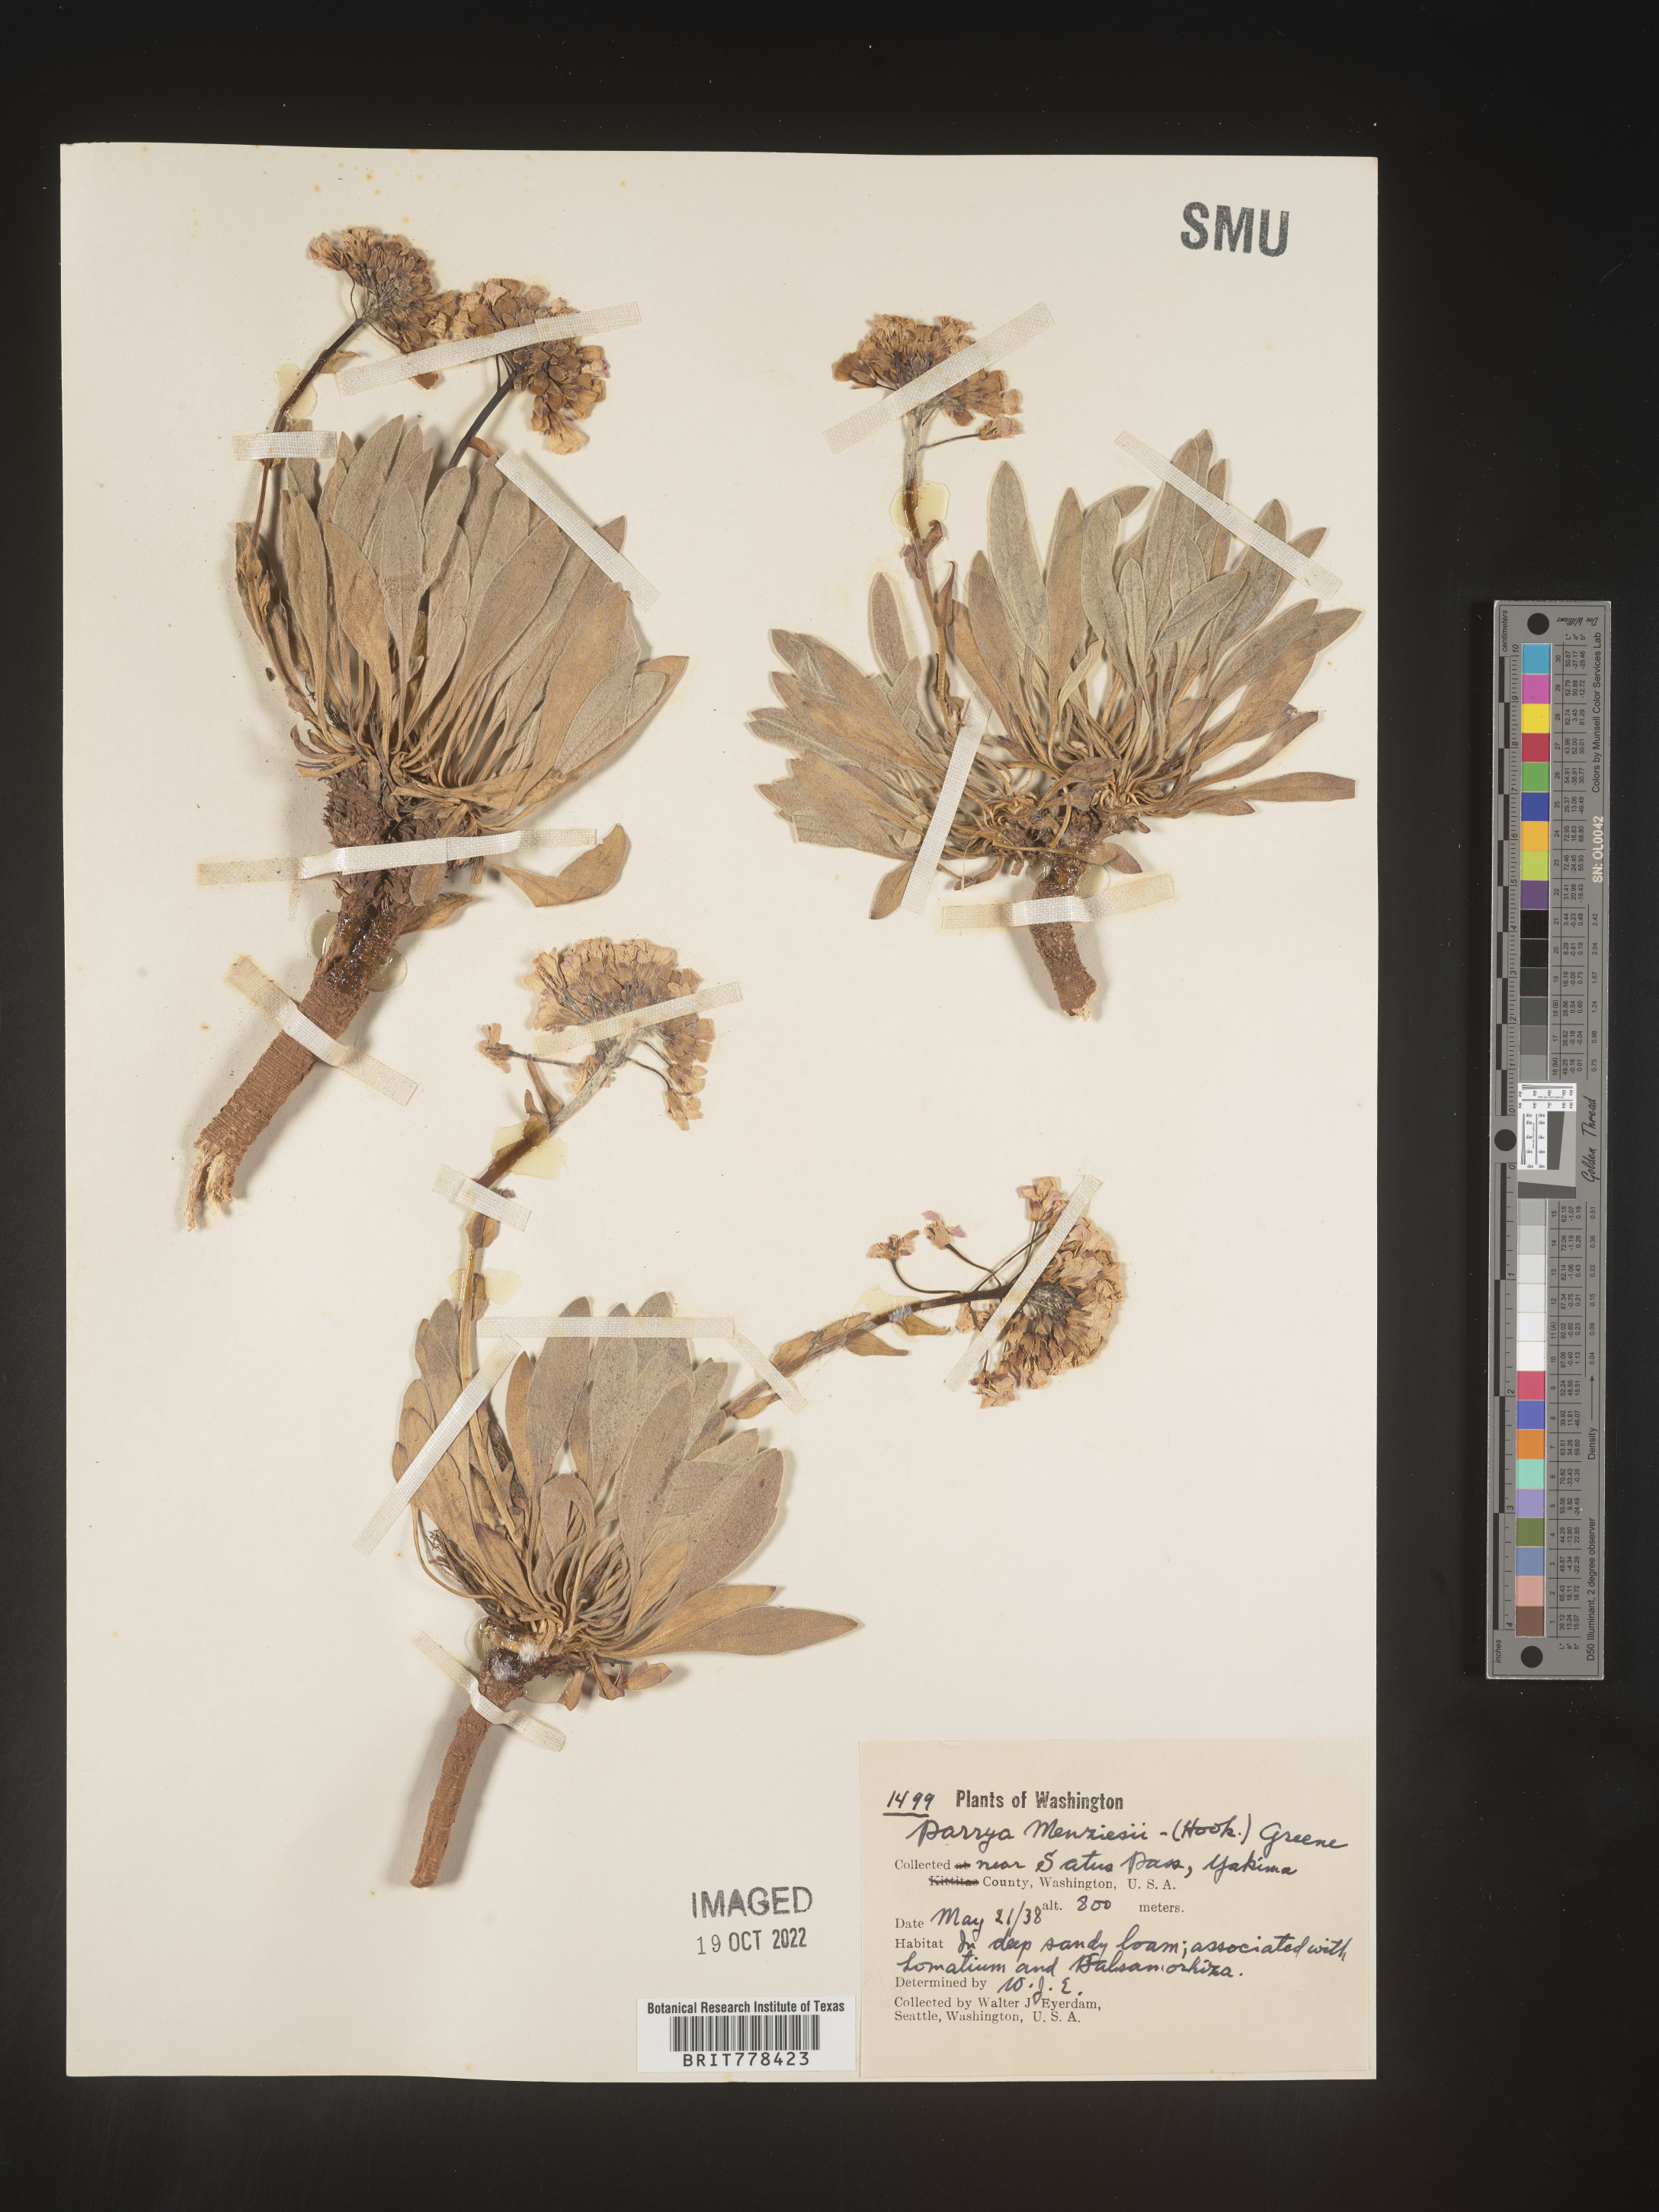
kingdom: Plantae
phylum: Tracheophyta
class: Magnoliopsida
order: Brassicales
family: Brassicaceae
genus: Parrya
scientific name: Parrya
